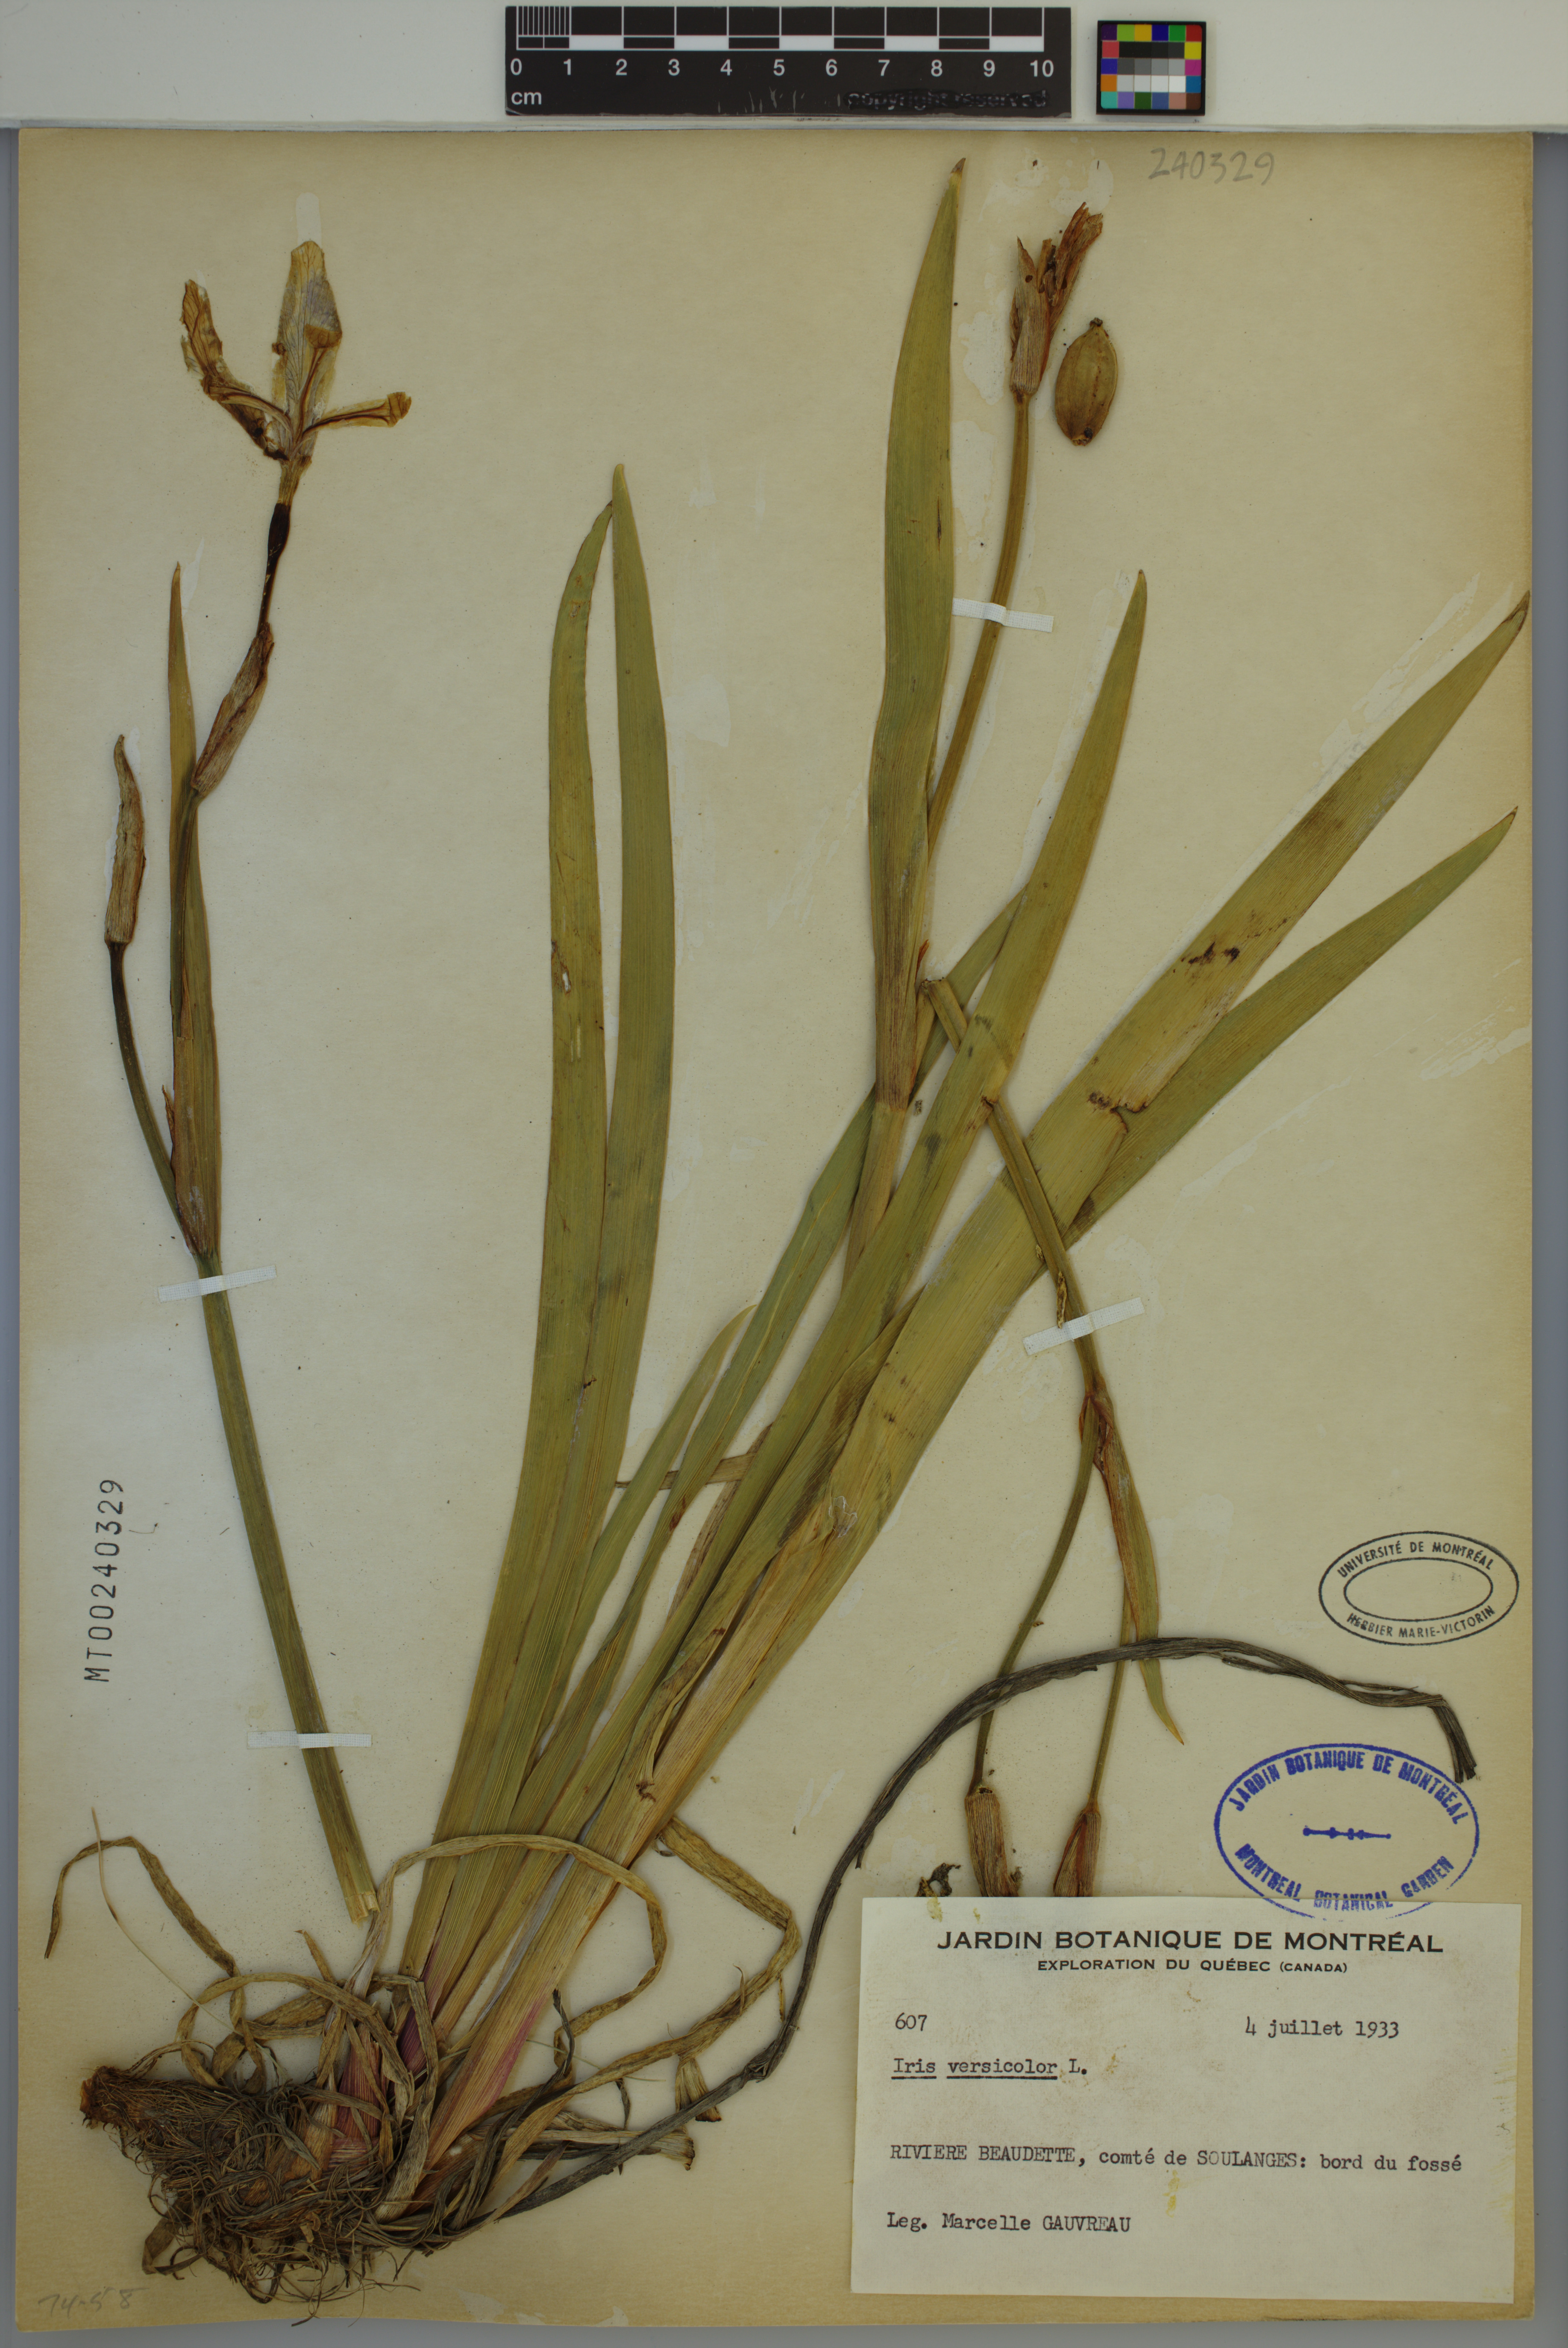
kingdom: Plantae
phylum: Tracheophyta
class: Liliopsida
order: Asparagales
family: Iridaceae
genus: Iris
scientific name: Iris versicolor
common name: Purple iris
